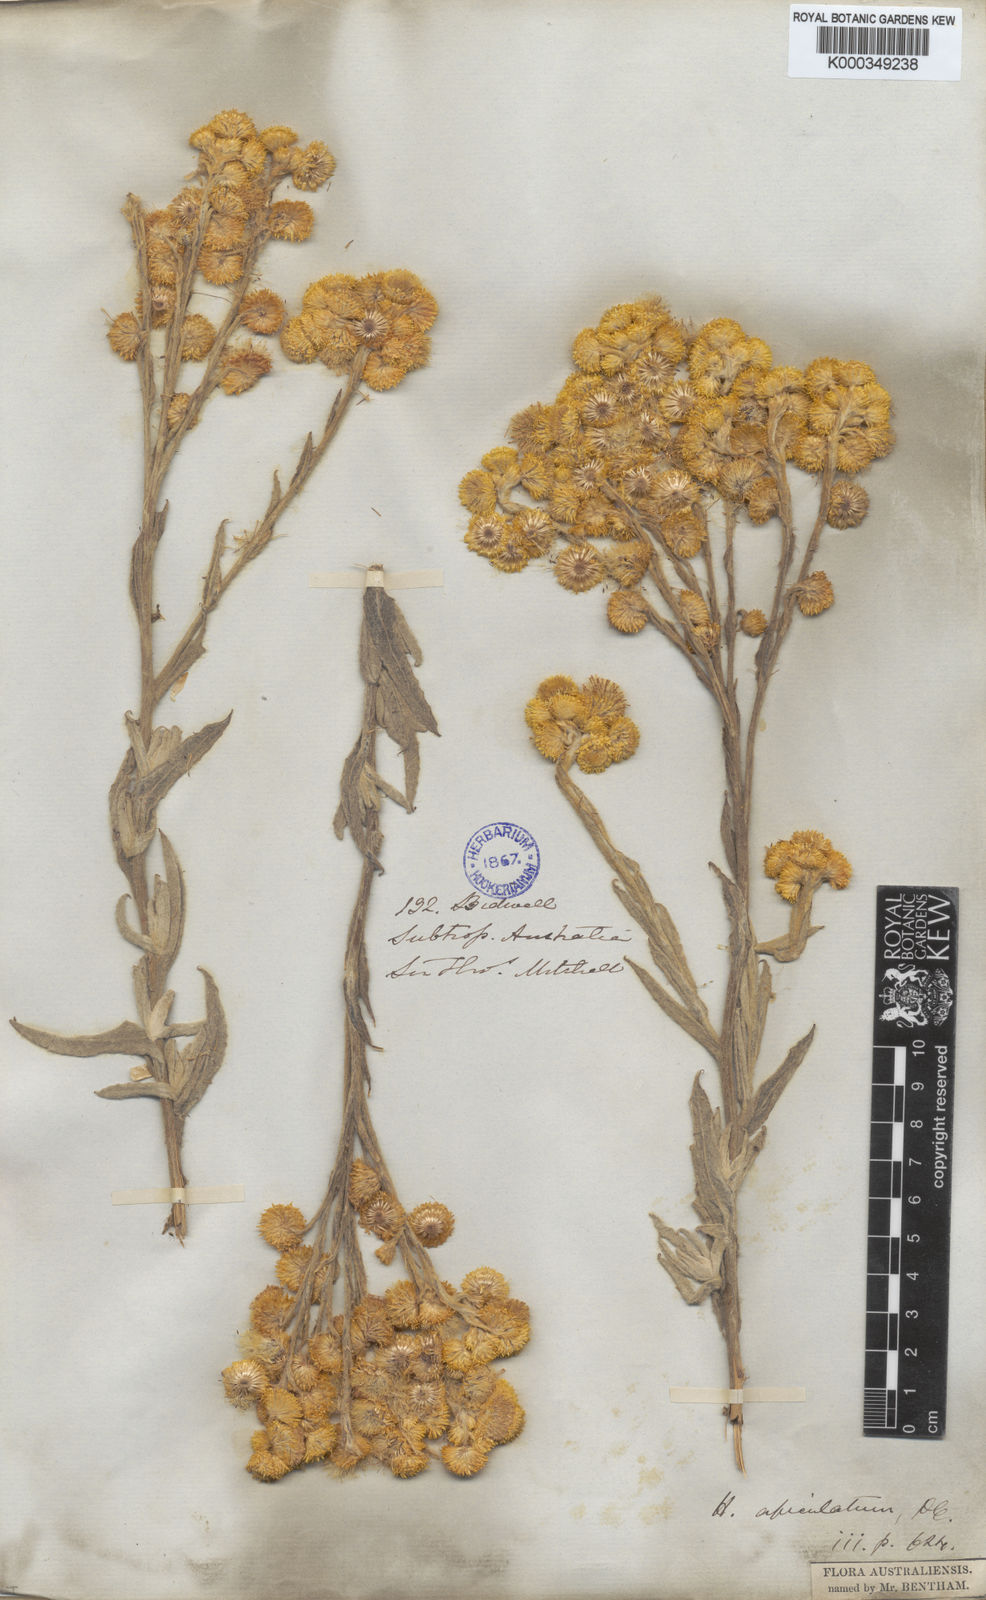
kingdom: Plantae
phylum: Tracheophyta
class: Magnoliopsida
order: Asterales
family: Asteraceae
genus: Chrysocephalum
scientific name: Chrysocephalum apiculatum
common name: Common everlasting
